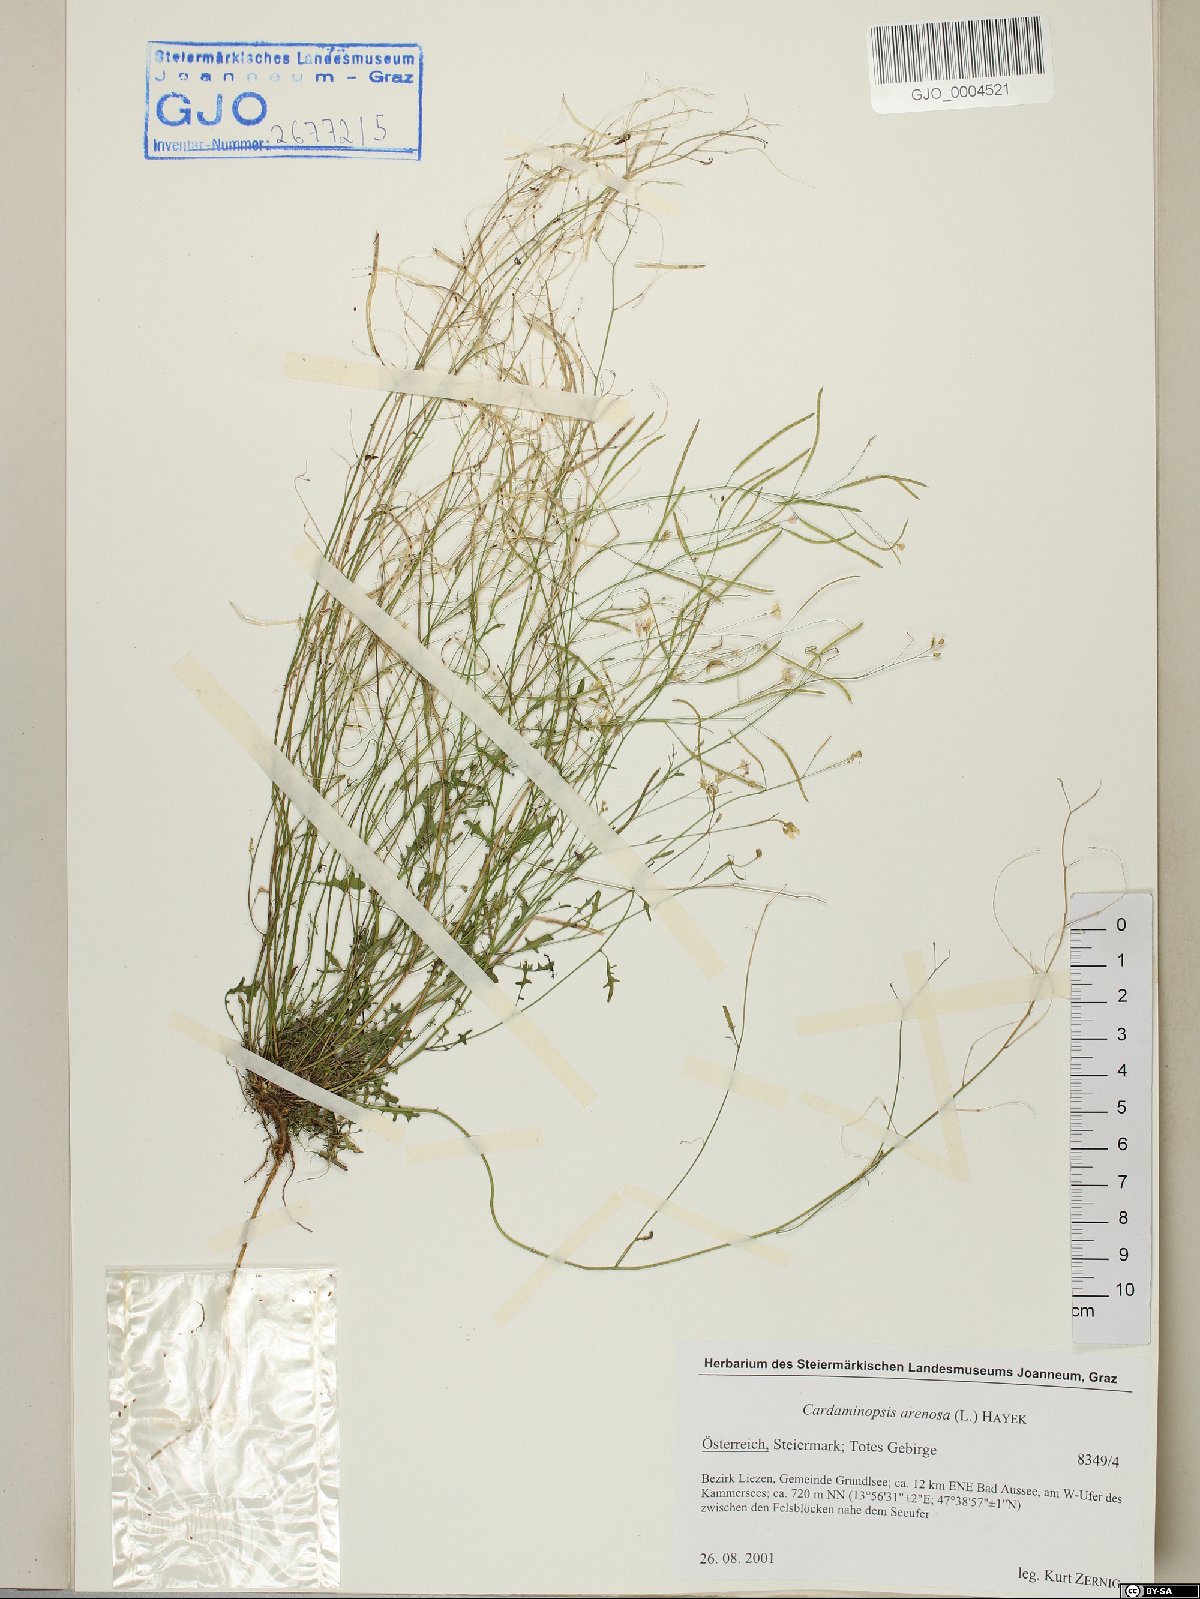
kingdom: Plantae
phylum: Tracheophyta
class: Magnoliopsida
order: Brassicales
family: Brassicaceae
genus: Arabidopsis
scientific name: Arabidopsis arenosa
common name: Sand rock-cress
